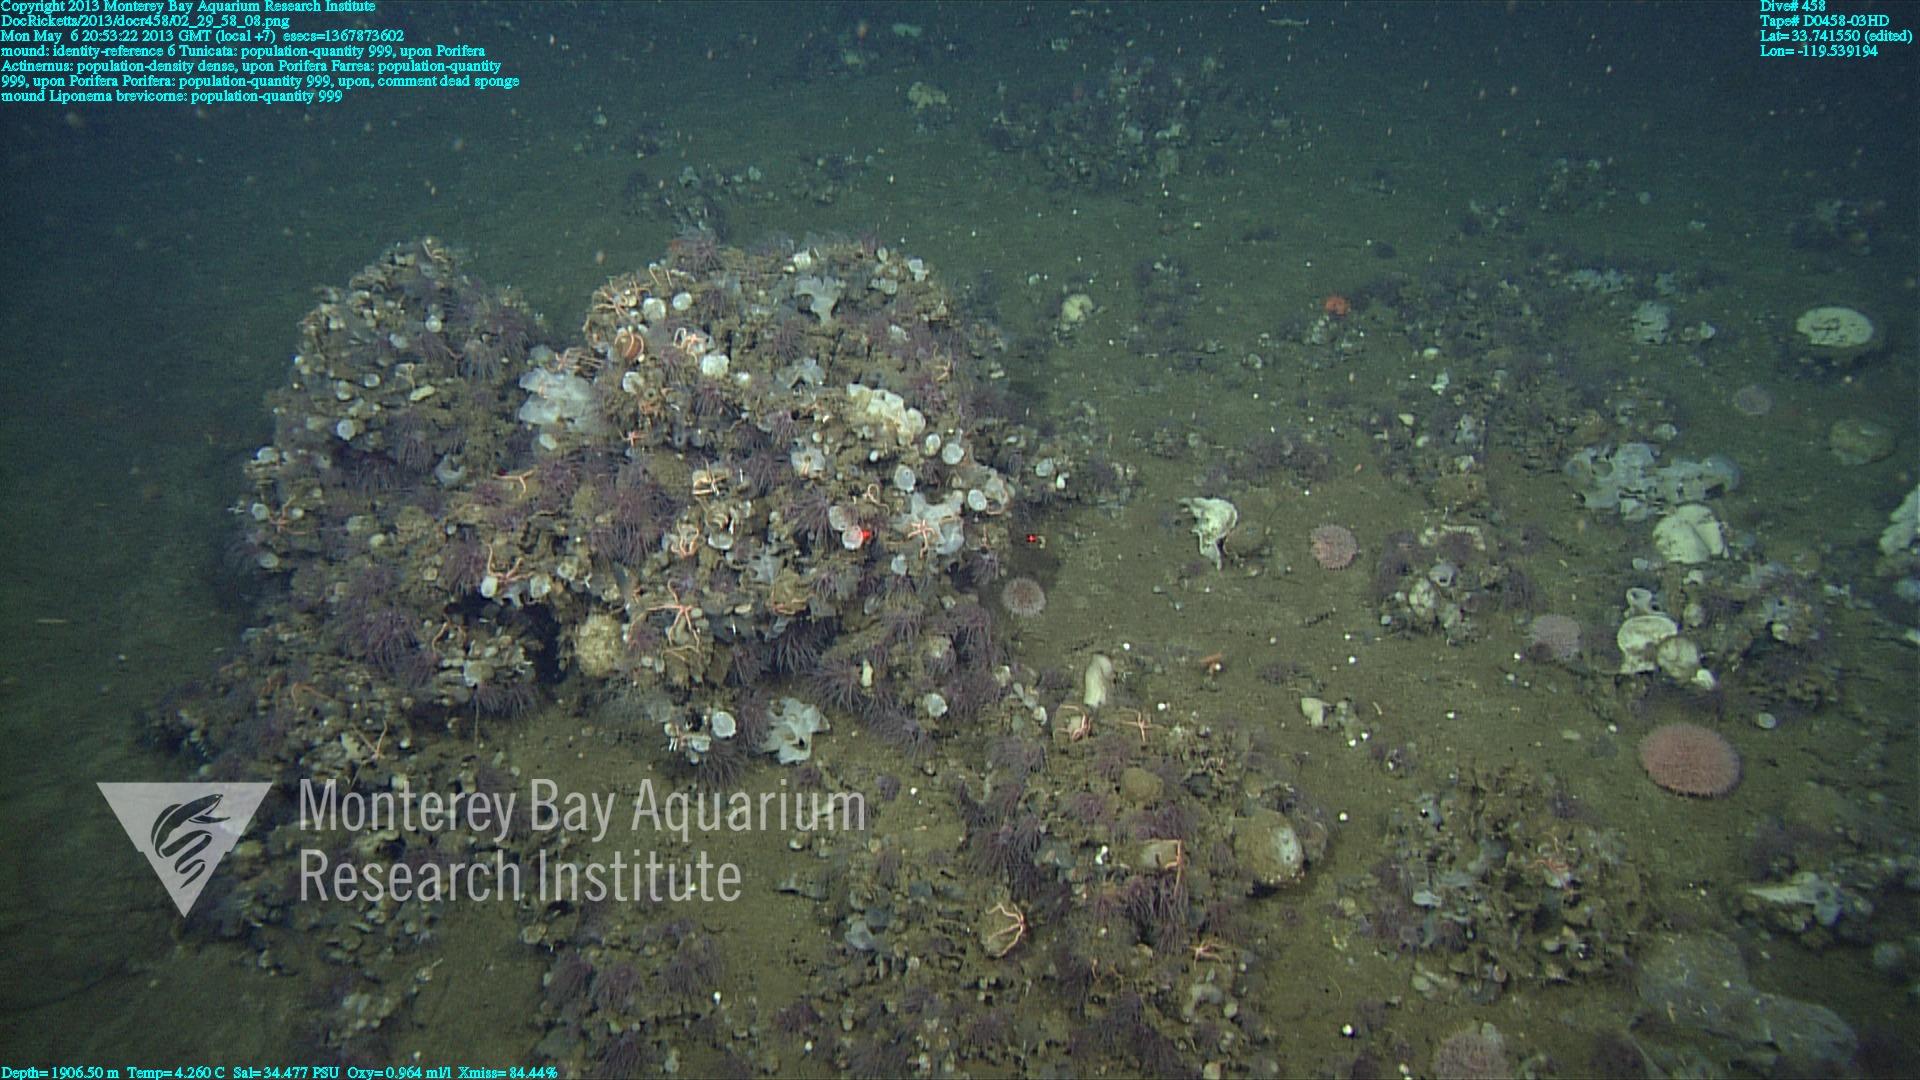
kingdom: Animalia
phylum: Porifera
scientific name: Porifera
